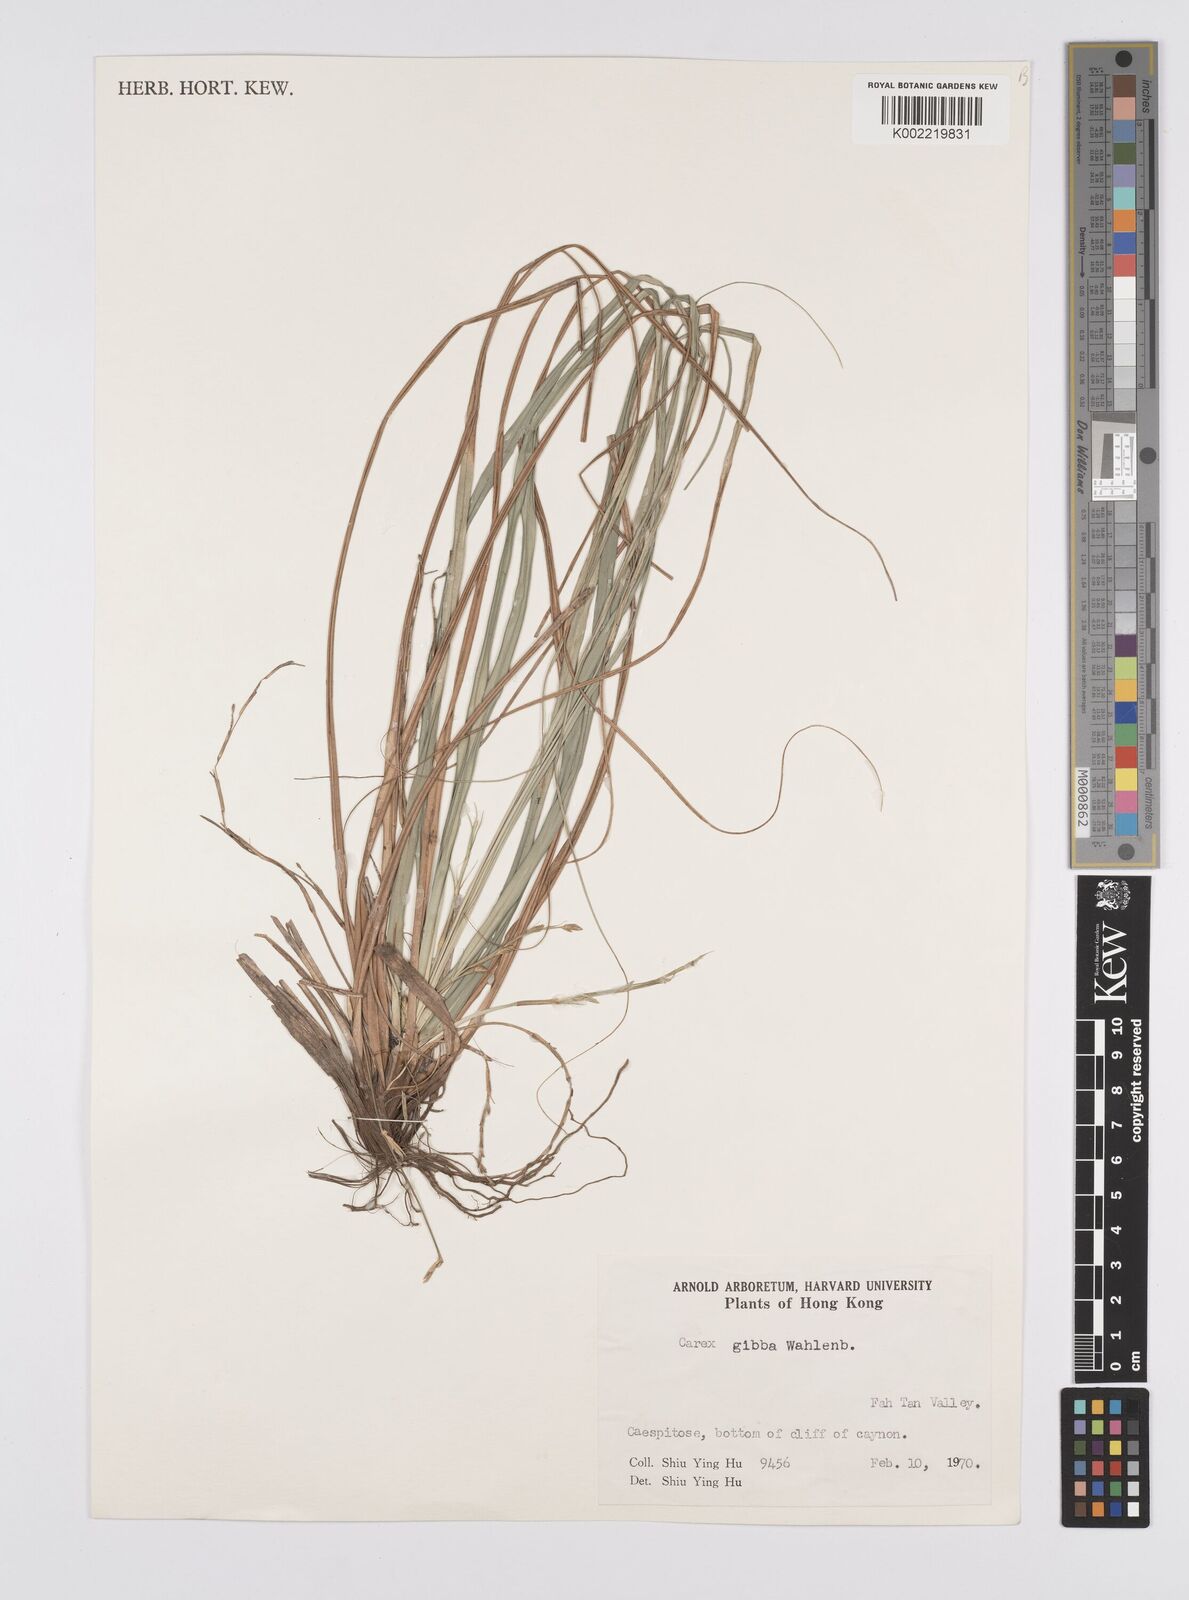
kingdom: Plantae
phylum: Tracheophyta
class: Liliopsida
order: Poales
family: Cyperaceae
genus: Carex
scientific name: Carex gibba
